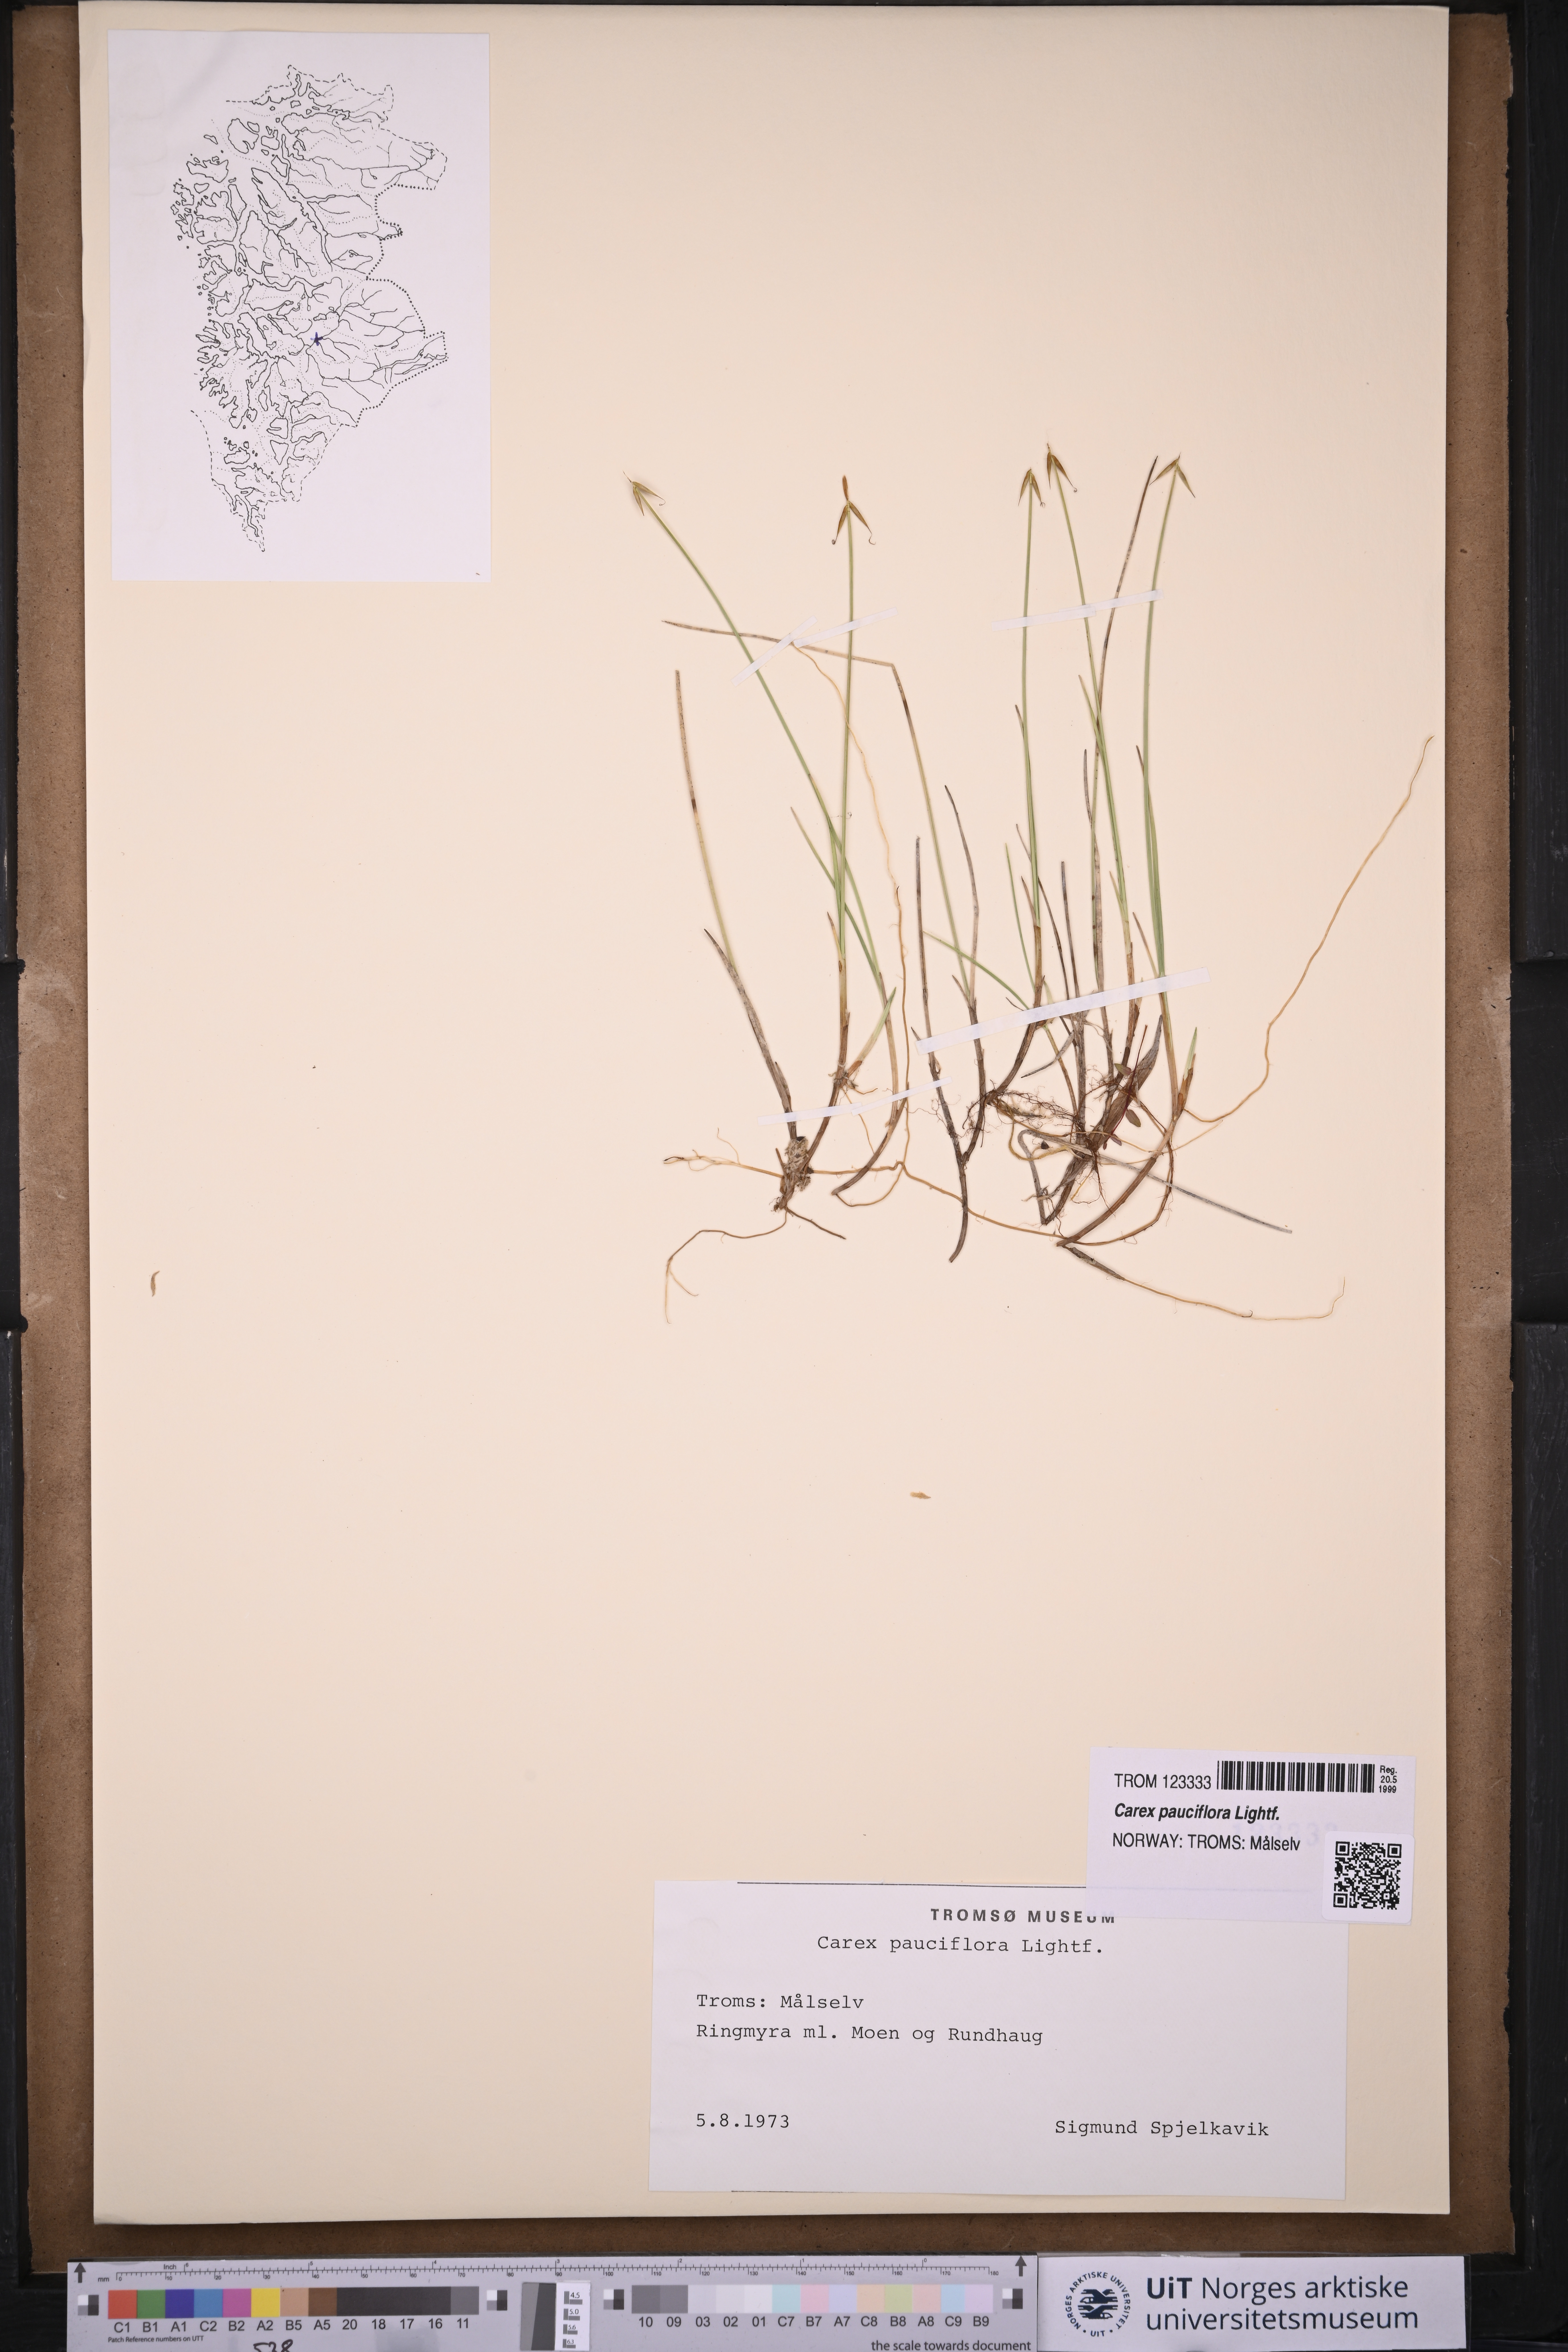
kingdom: Plantae
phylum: Tracheophyta
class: Liliopsida
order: Poales
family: Cyperaceae
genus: Carex
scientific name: Carex pauciflora
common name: Few-flowered sedge
